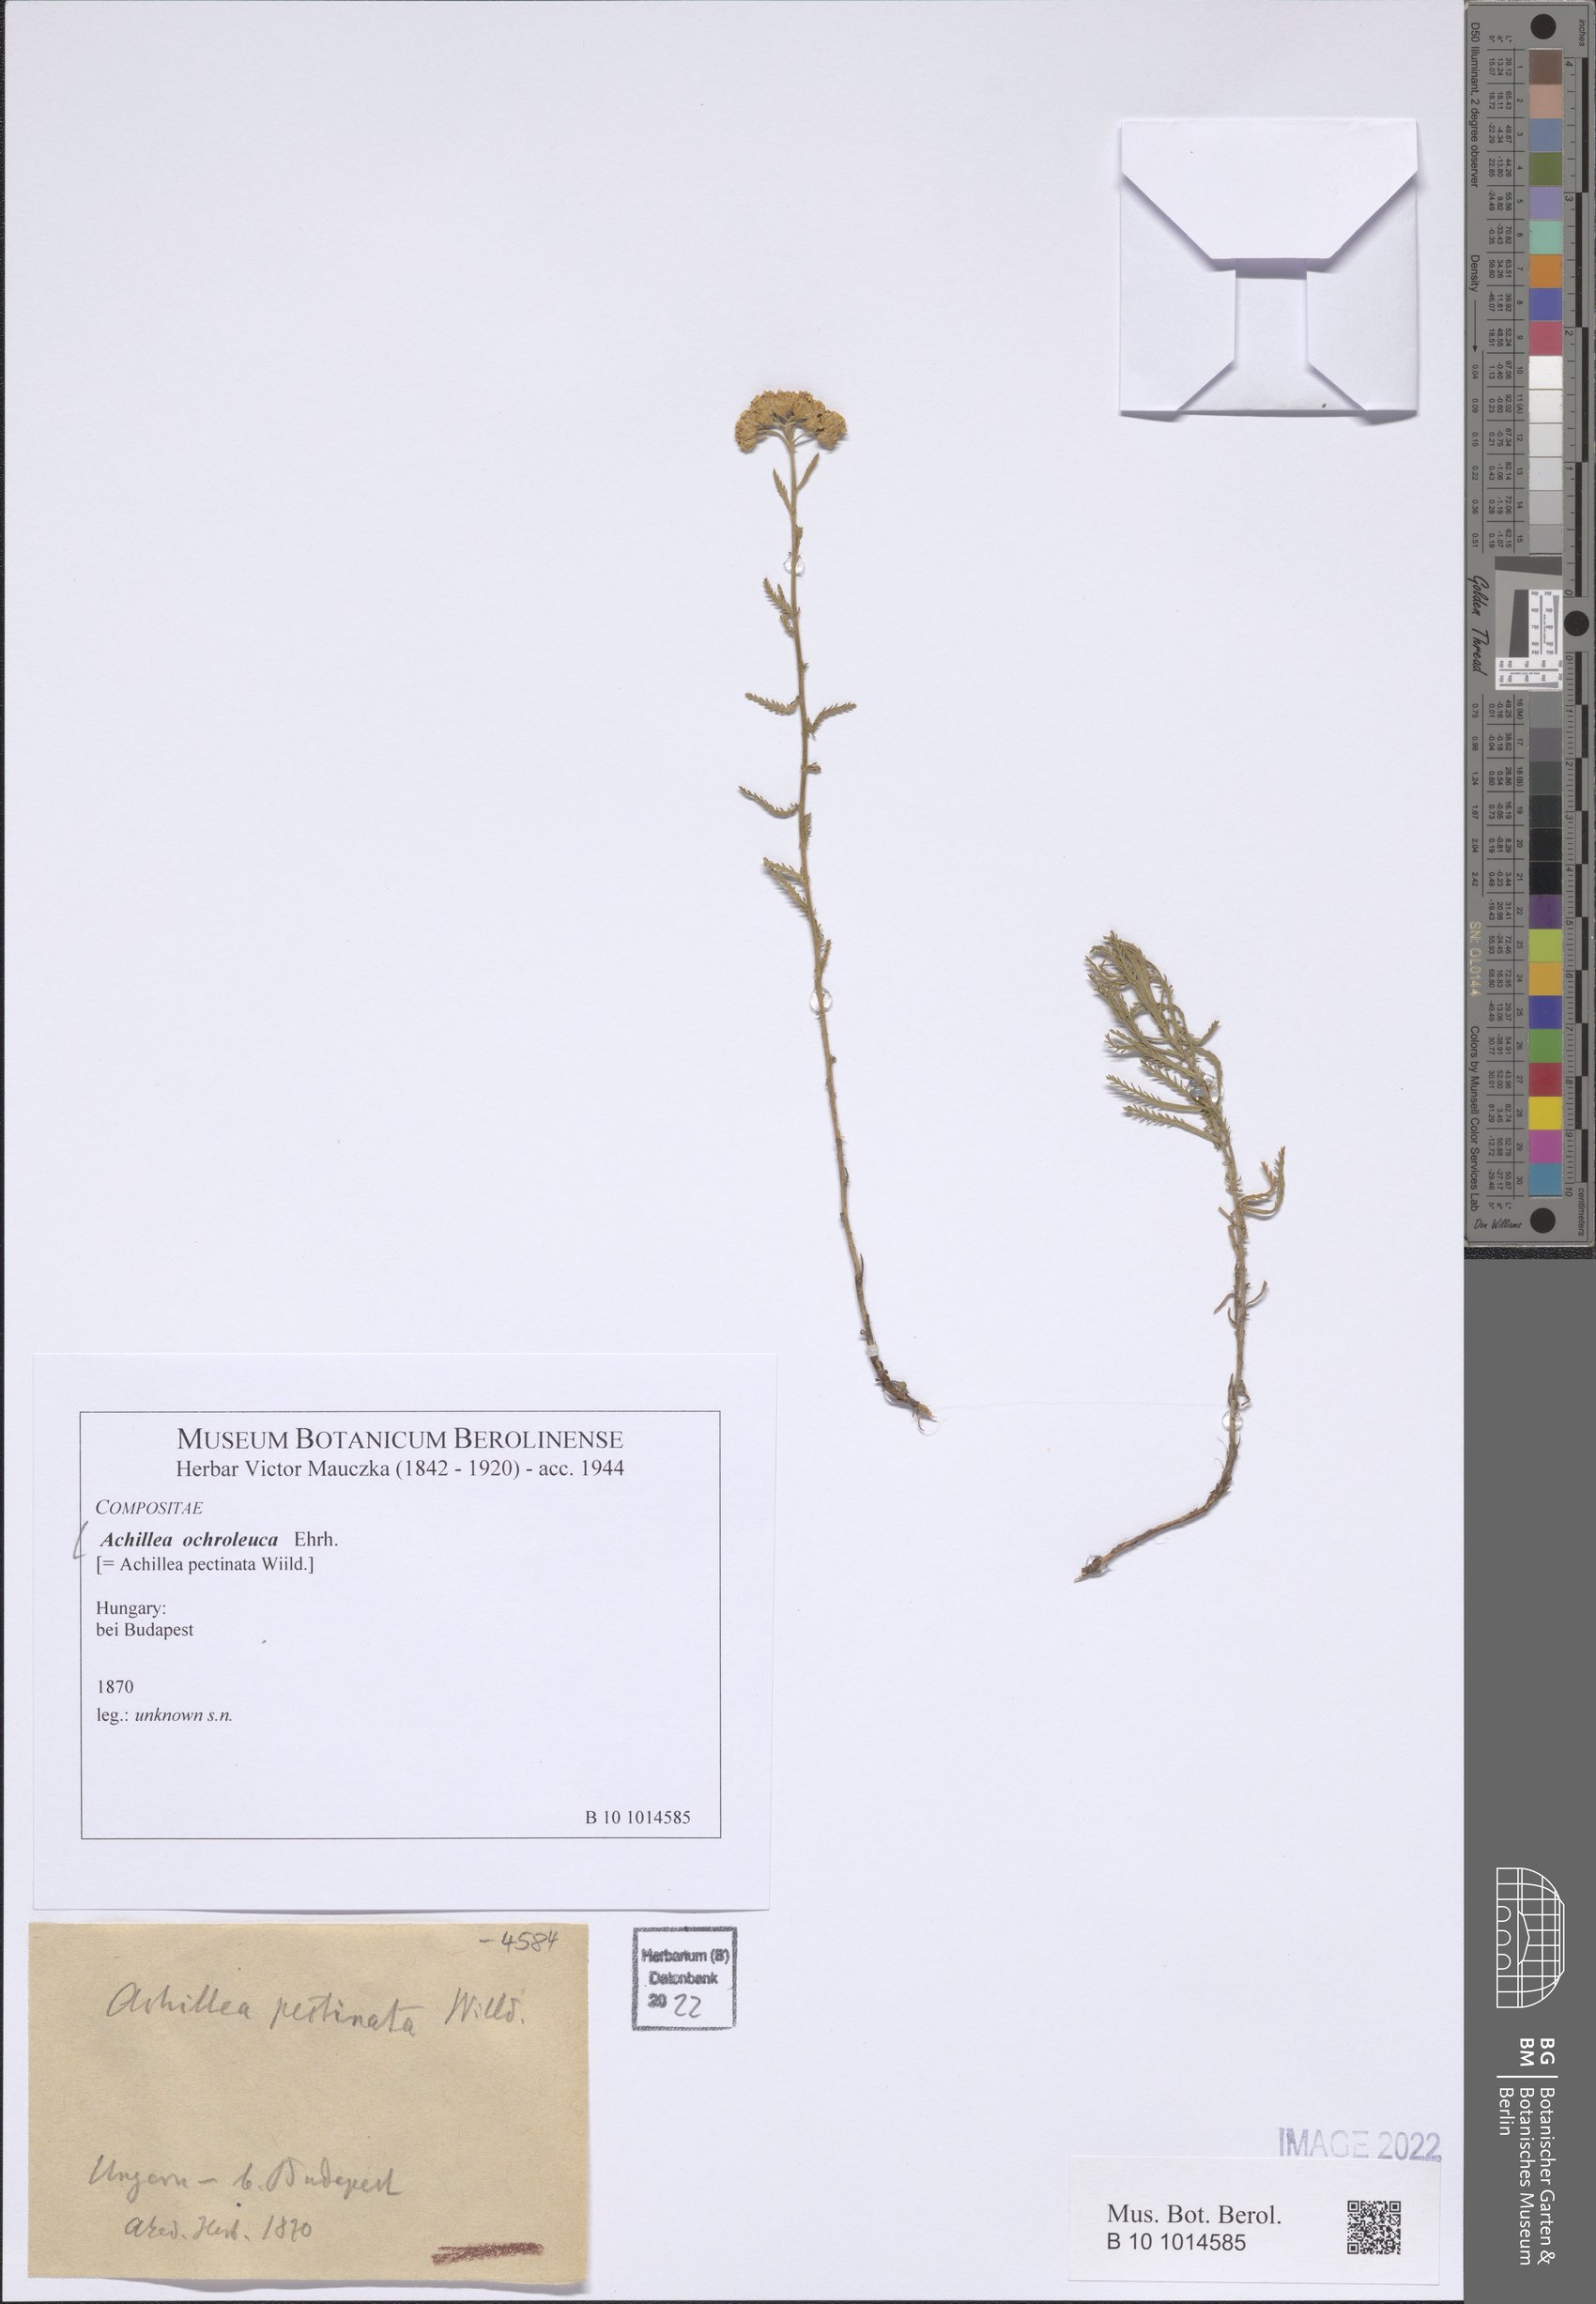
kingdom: Plantae
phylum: Tracheophyta
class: Magnoliopsida
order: Asterales
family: Asteraceae
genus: Achillea
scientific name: Achillea ochroleuca
